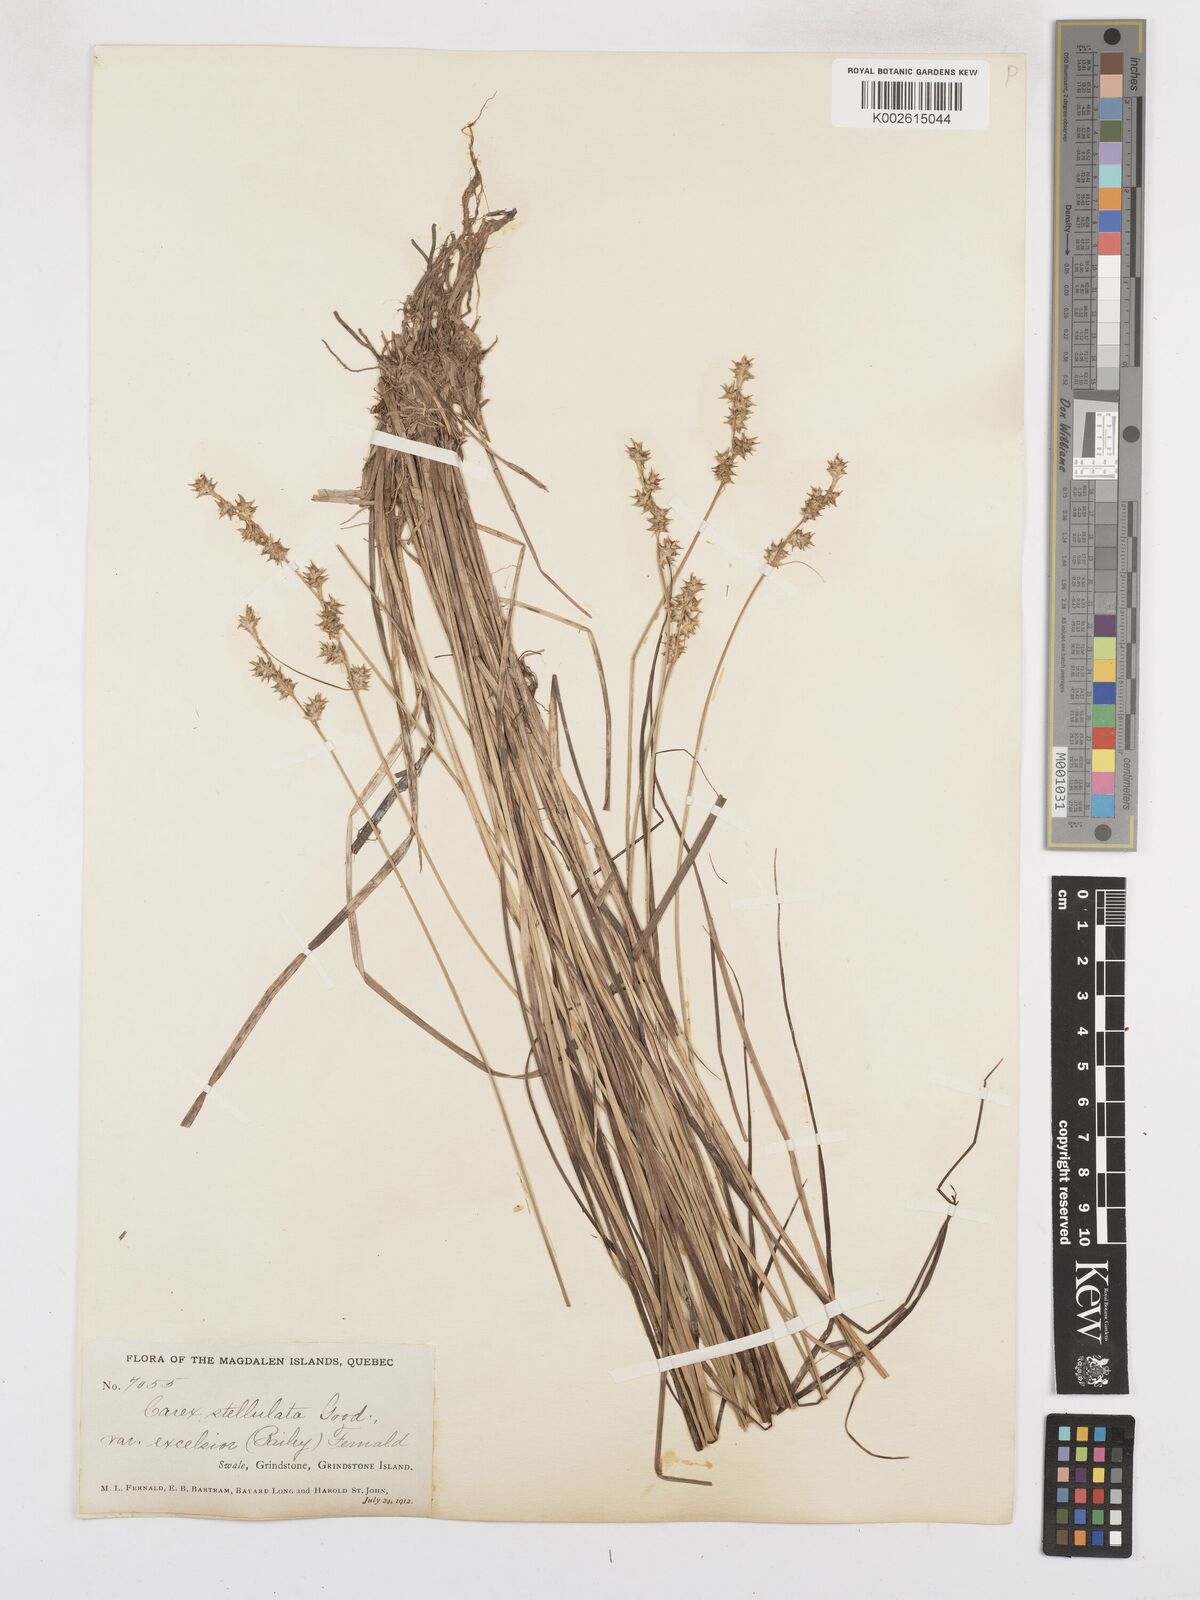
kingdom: Plantae
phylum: Tracheophyta
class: Liliopsida
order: Poales
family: Cyperaceae
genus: Carex
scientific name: Carex atlantica
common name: Atlantic sedge
